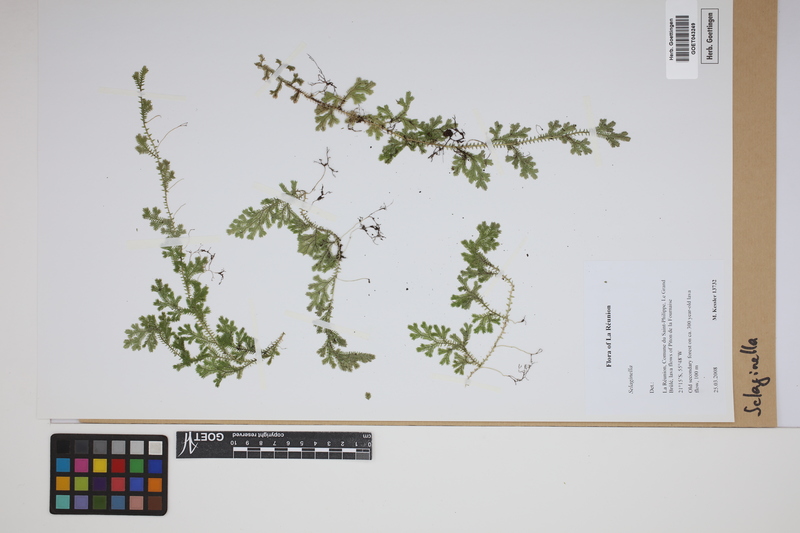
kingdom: Plantae
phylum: Tracheophyta
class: Lycopodiopsida
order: Selaginellales
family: Selaginellaceae
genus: Selaginella
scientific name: Selaginella
